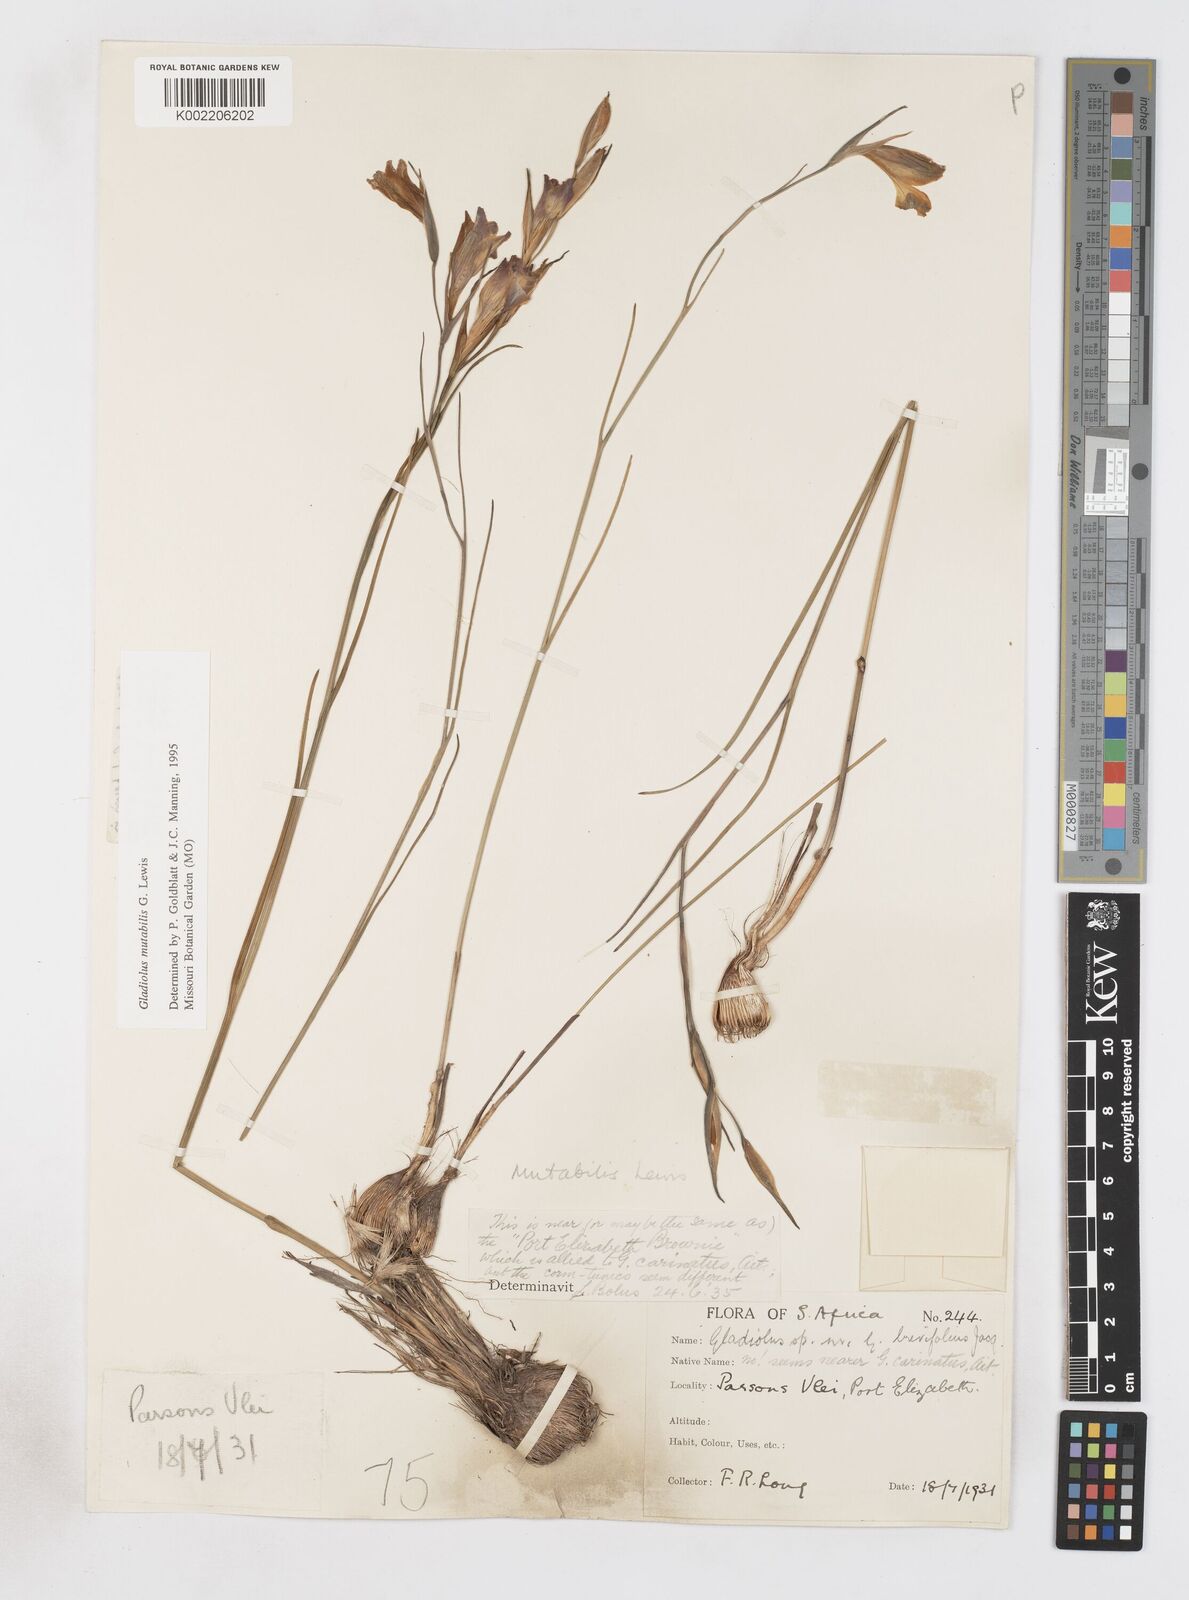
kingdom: Plantae
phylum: Tracheophyta
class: Liliopsida
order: Asparagales
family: Iridaceae
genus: Gladiolus
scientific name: Gladiolus mutabilis
